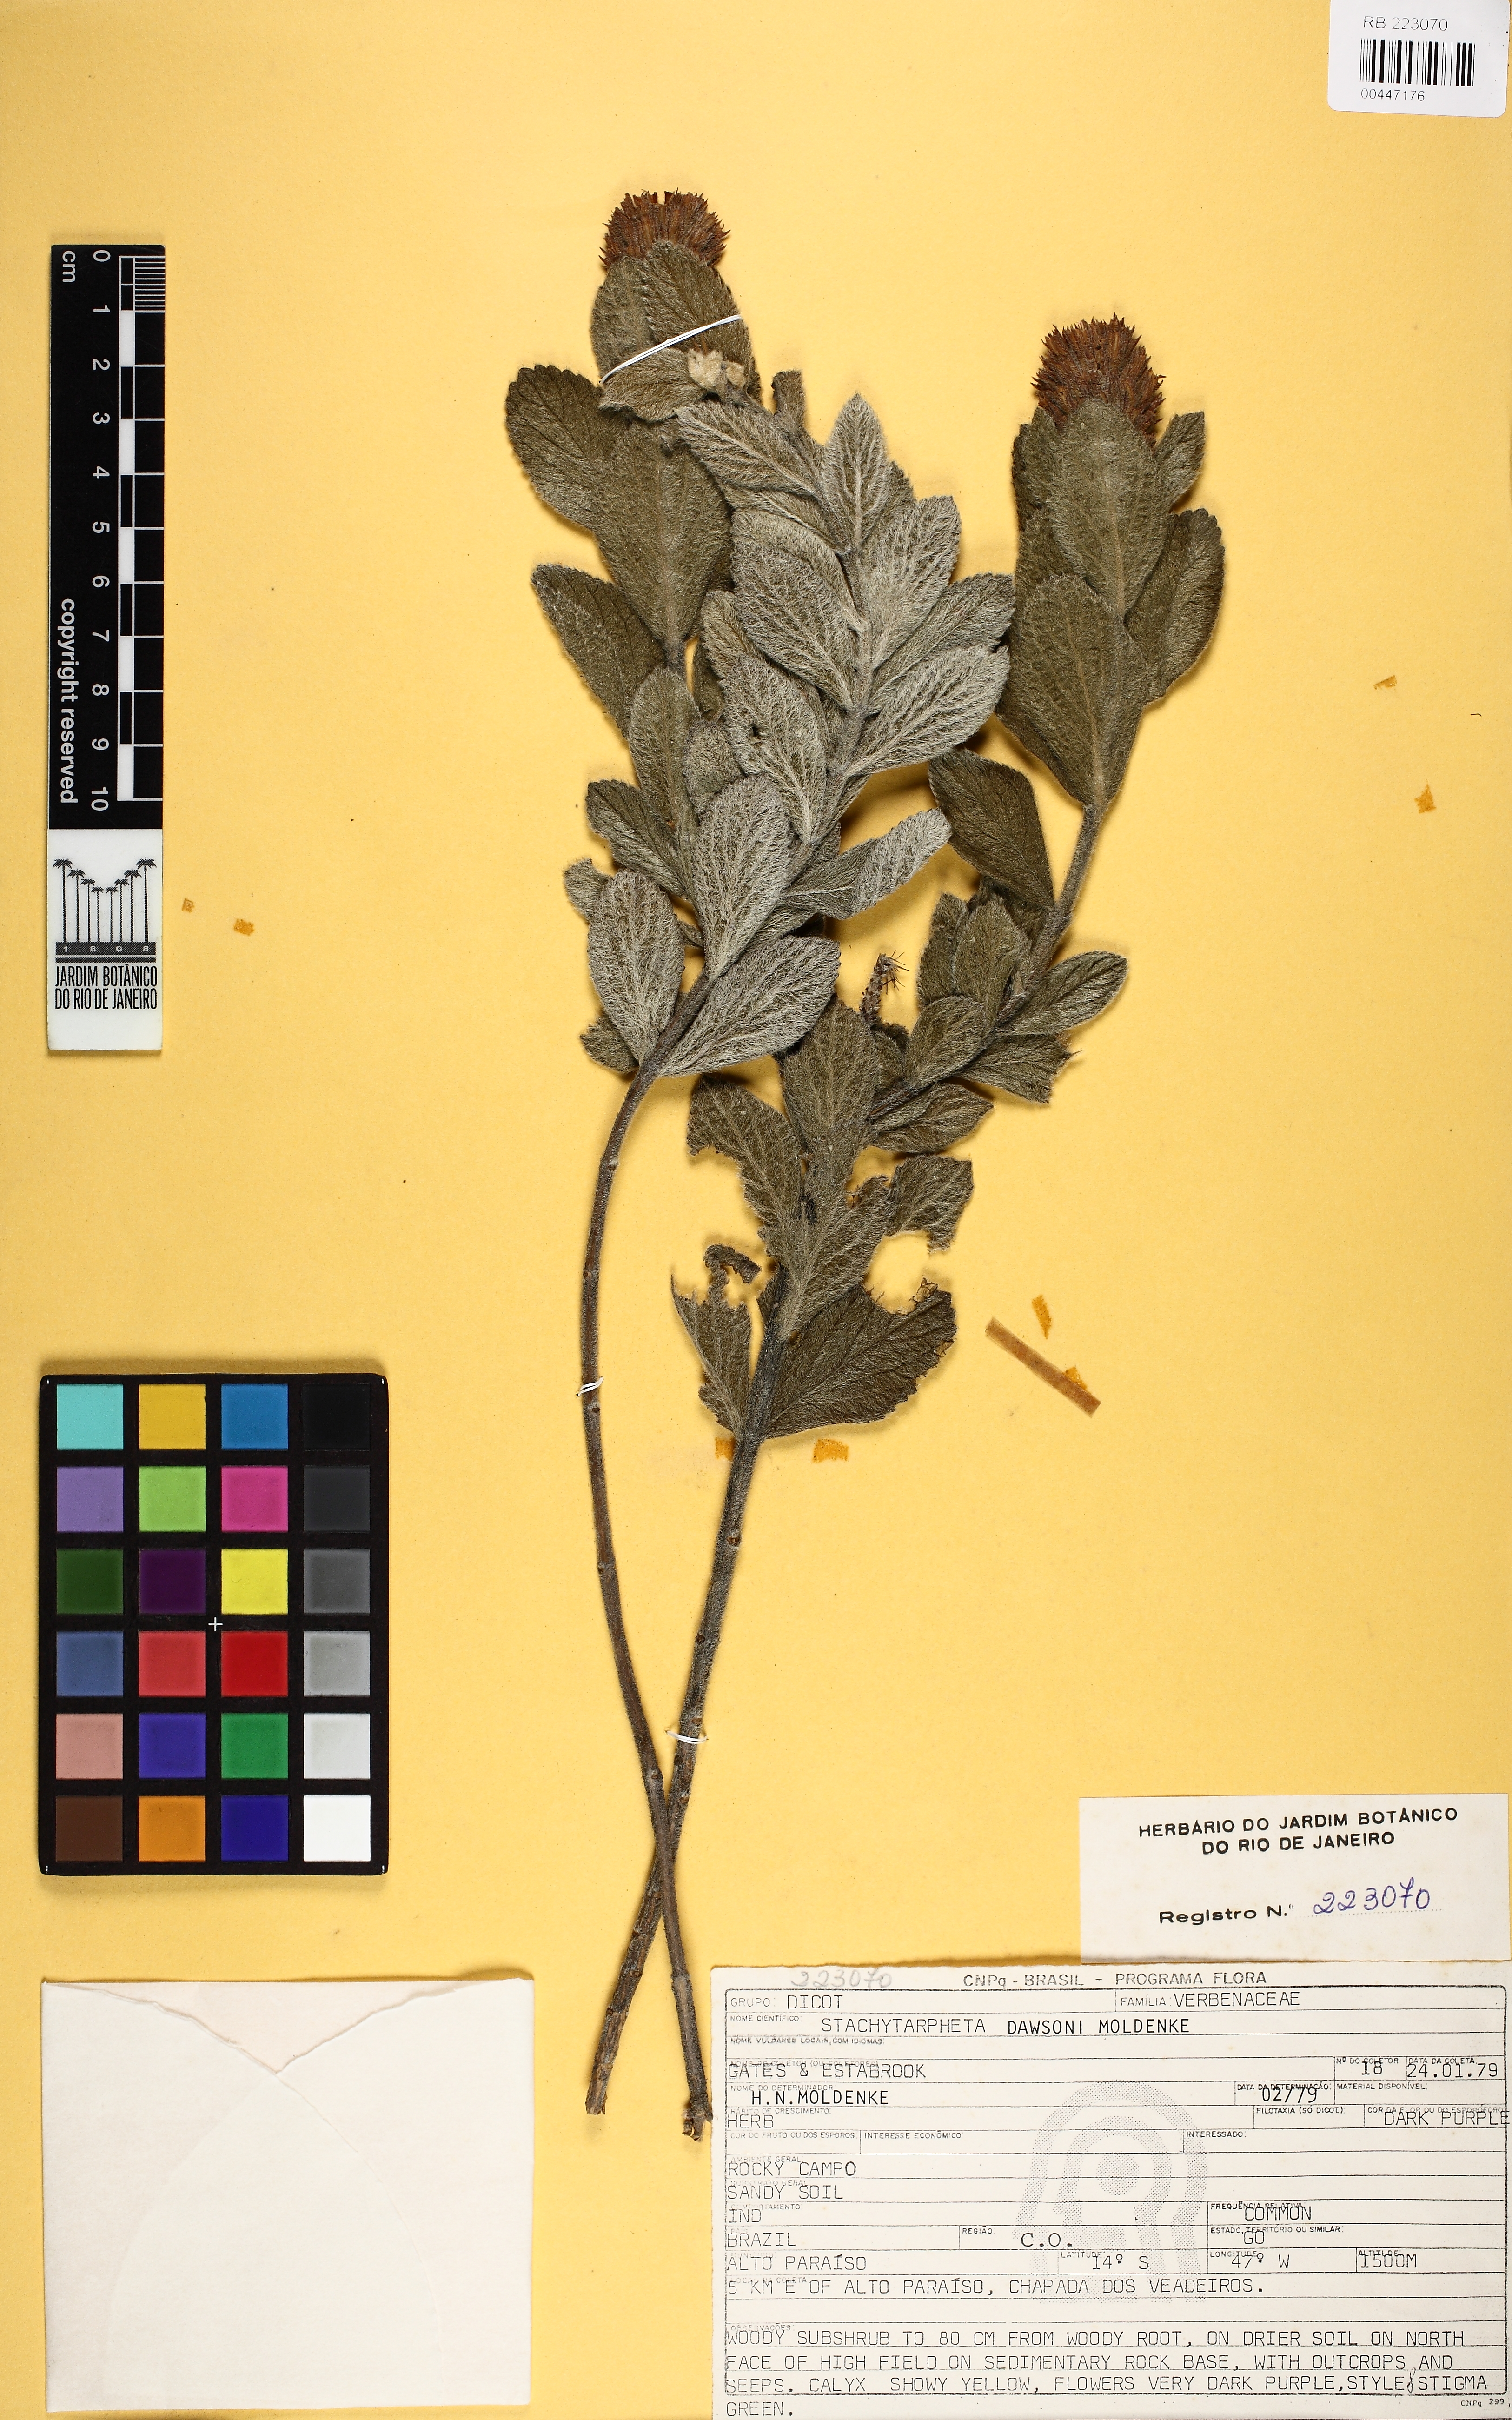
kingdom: Plantae
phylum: Tracheophyta
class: Magnoliopsida
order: Lamiales
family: Verbenaceae
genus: Stachytarpheta
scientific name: Stachytarpheta mollis
